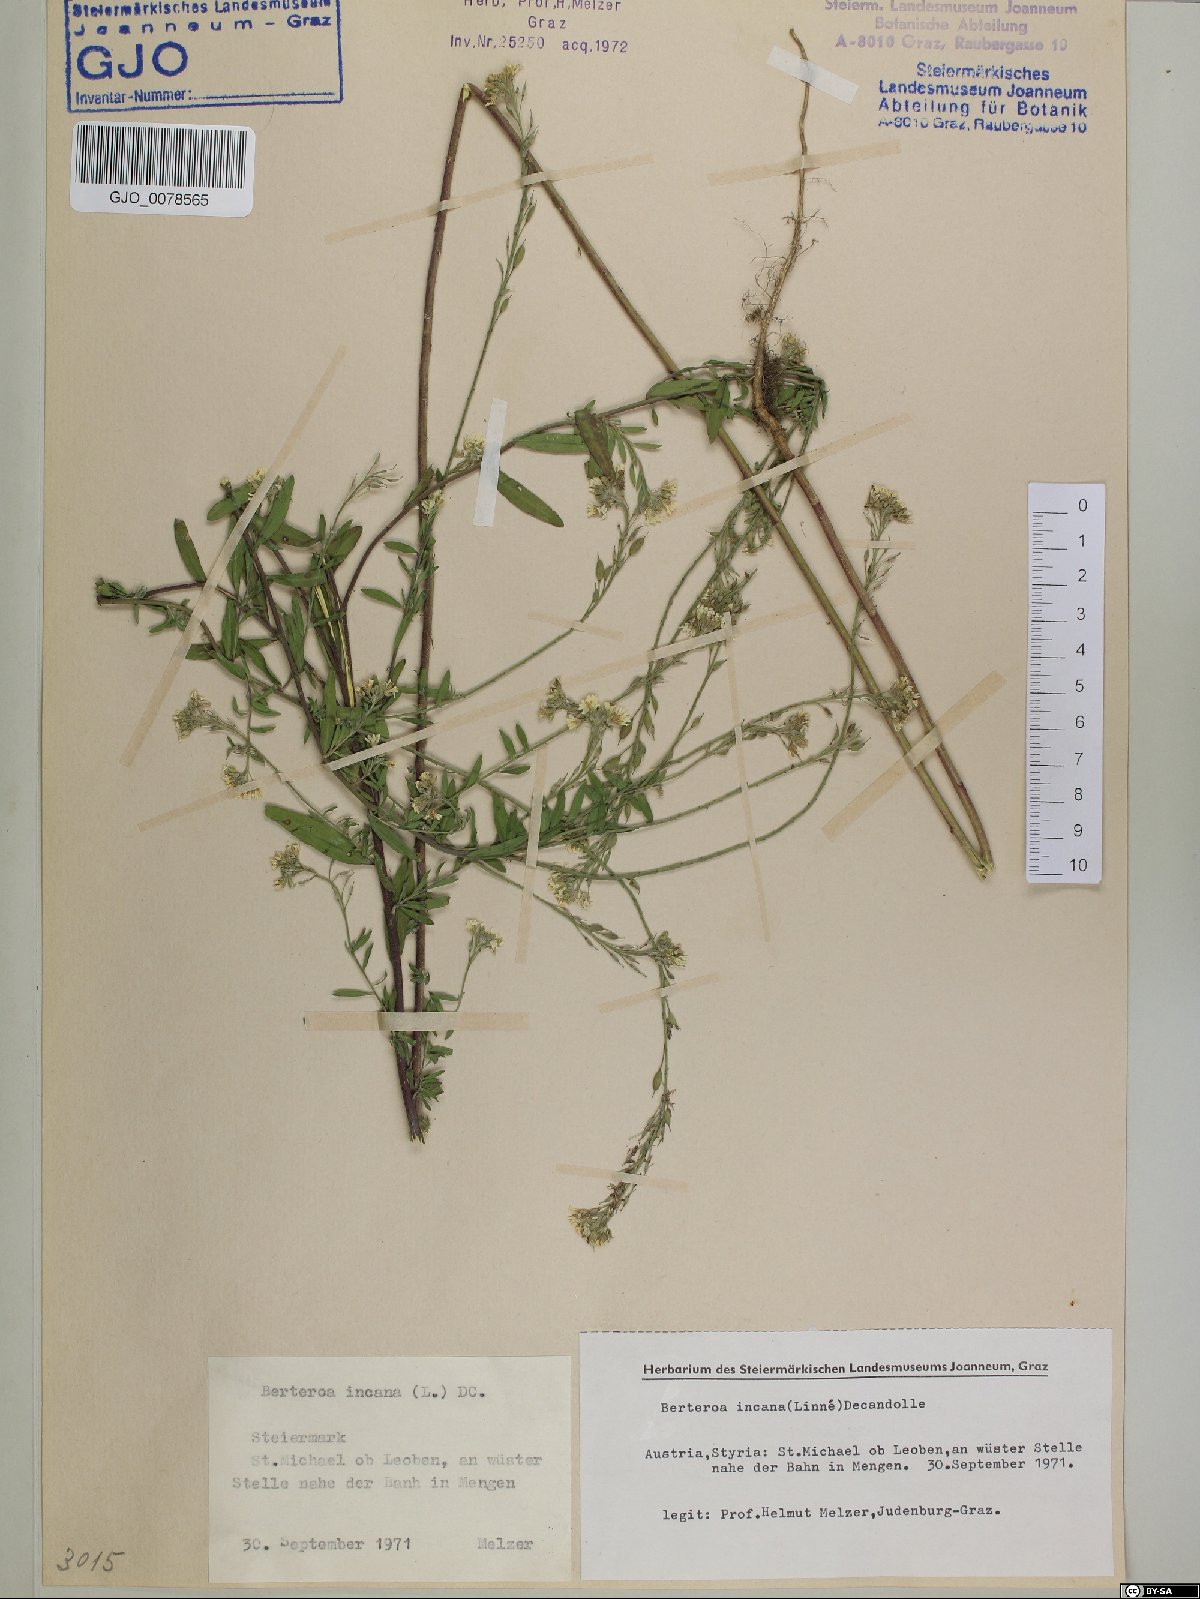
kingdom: Plantae
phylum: Tracheophyta
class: Magnoliopsida
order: Brassicales
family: Brassicaceae
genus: Berteroa
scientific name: Berteroa incana
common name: Hoary alison
